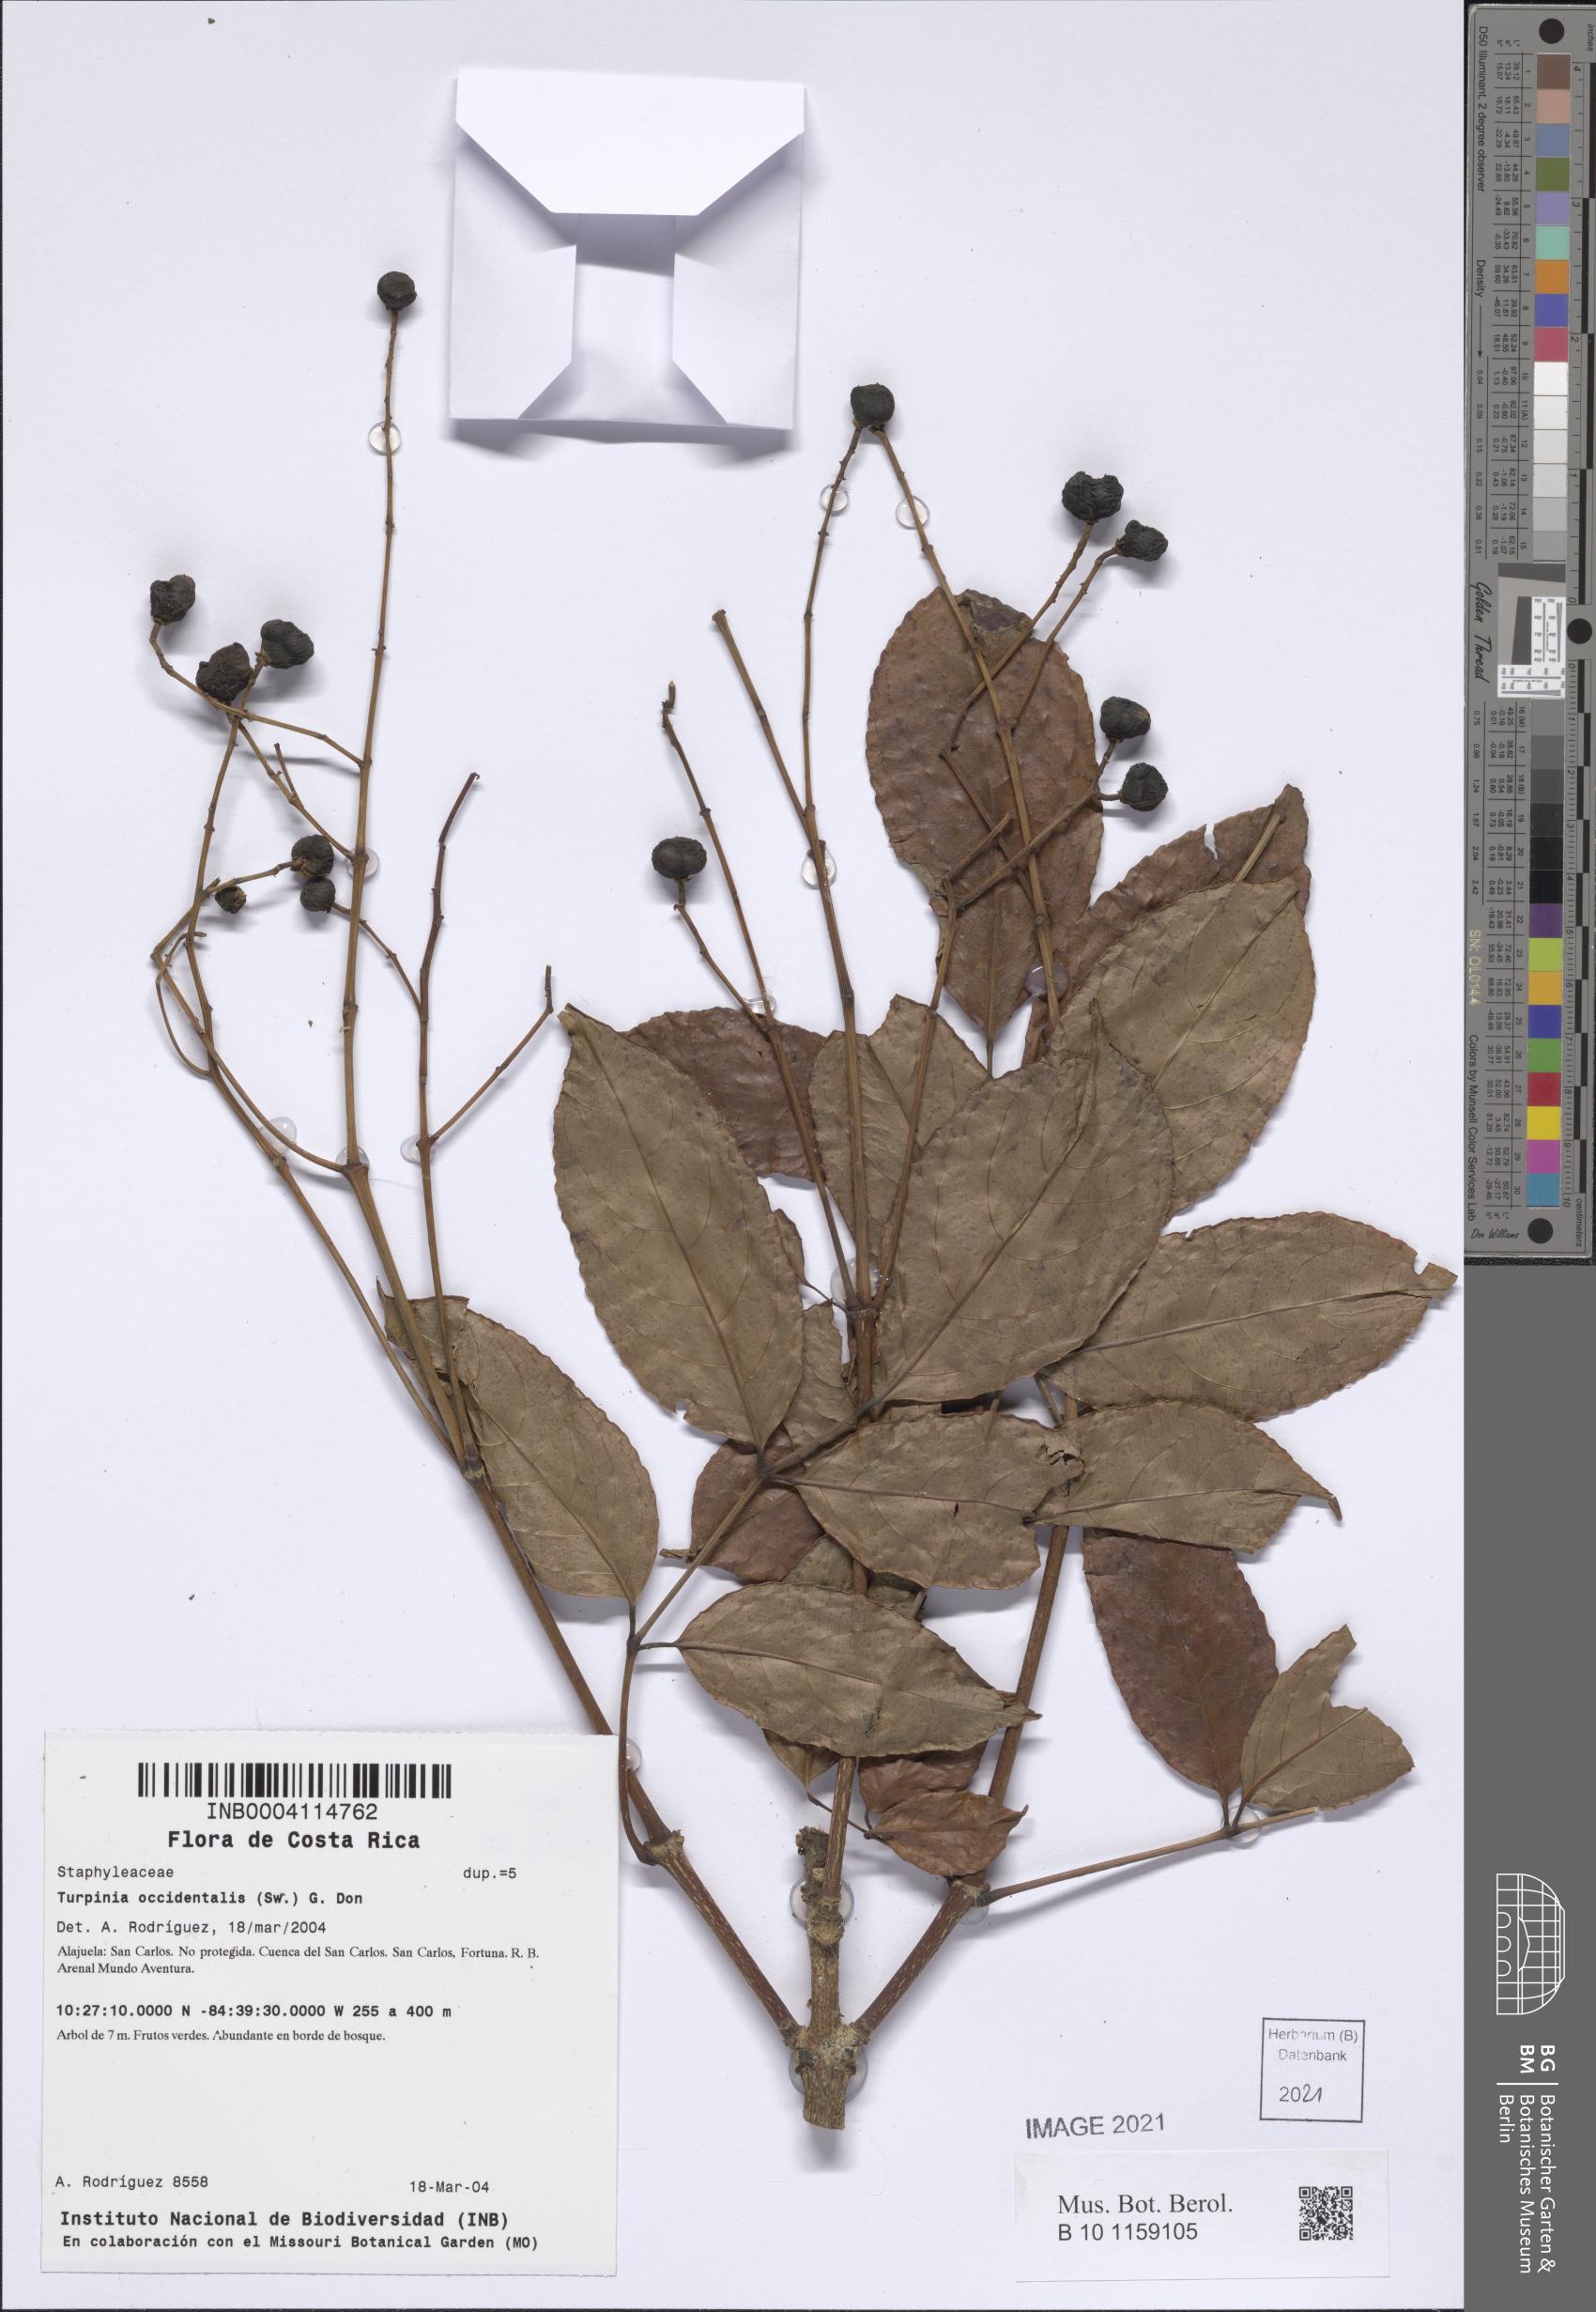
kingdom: Plantae
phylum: Tracheophyta
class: Magnoliopsida
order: Crossosomatales
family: Staphyleaceae
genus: Turpinia
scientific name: Turpinia occidentalis
